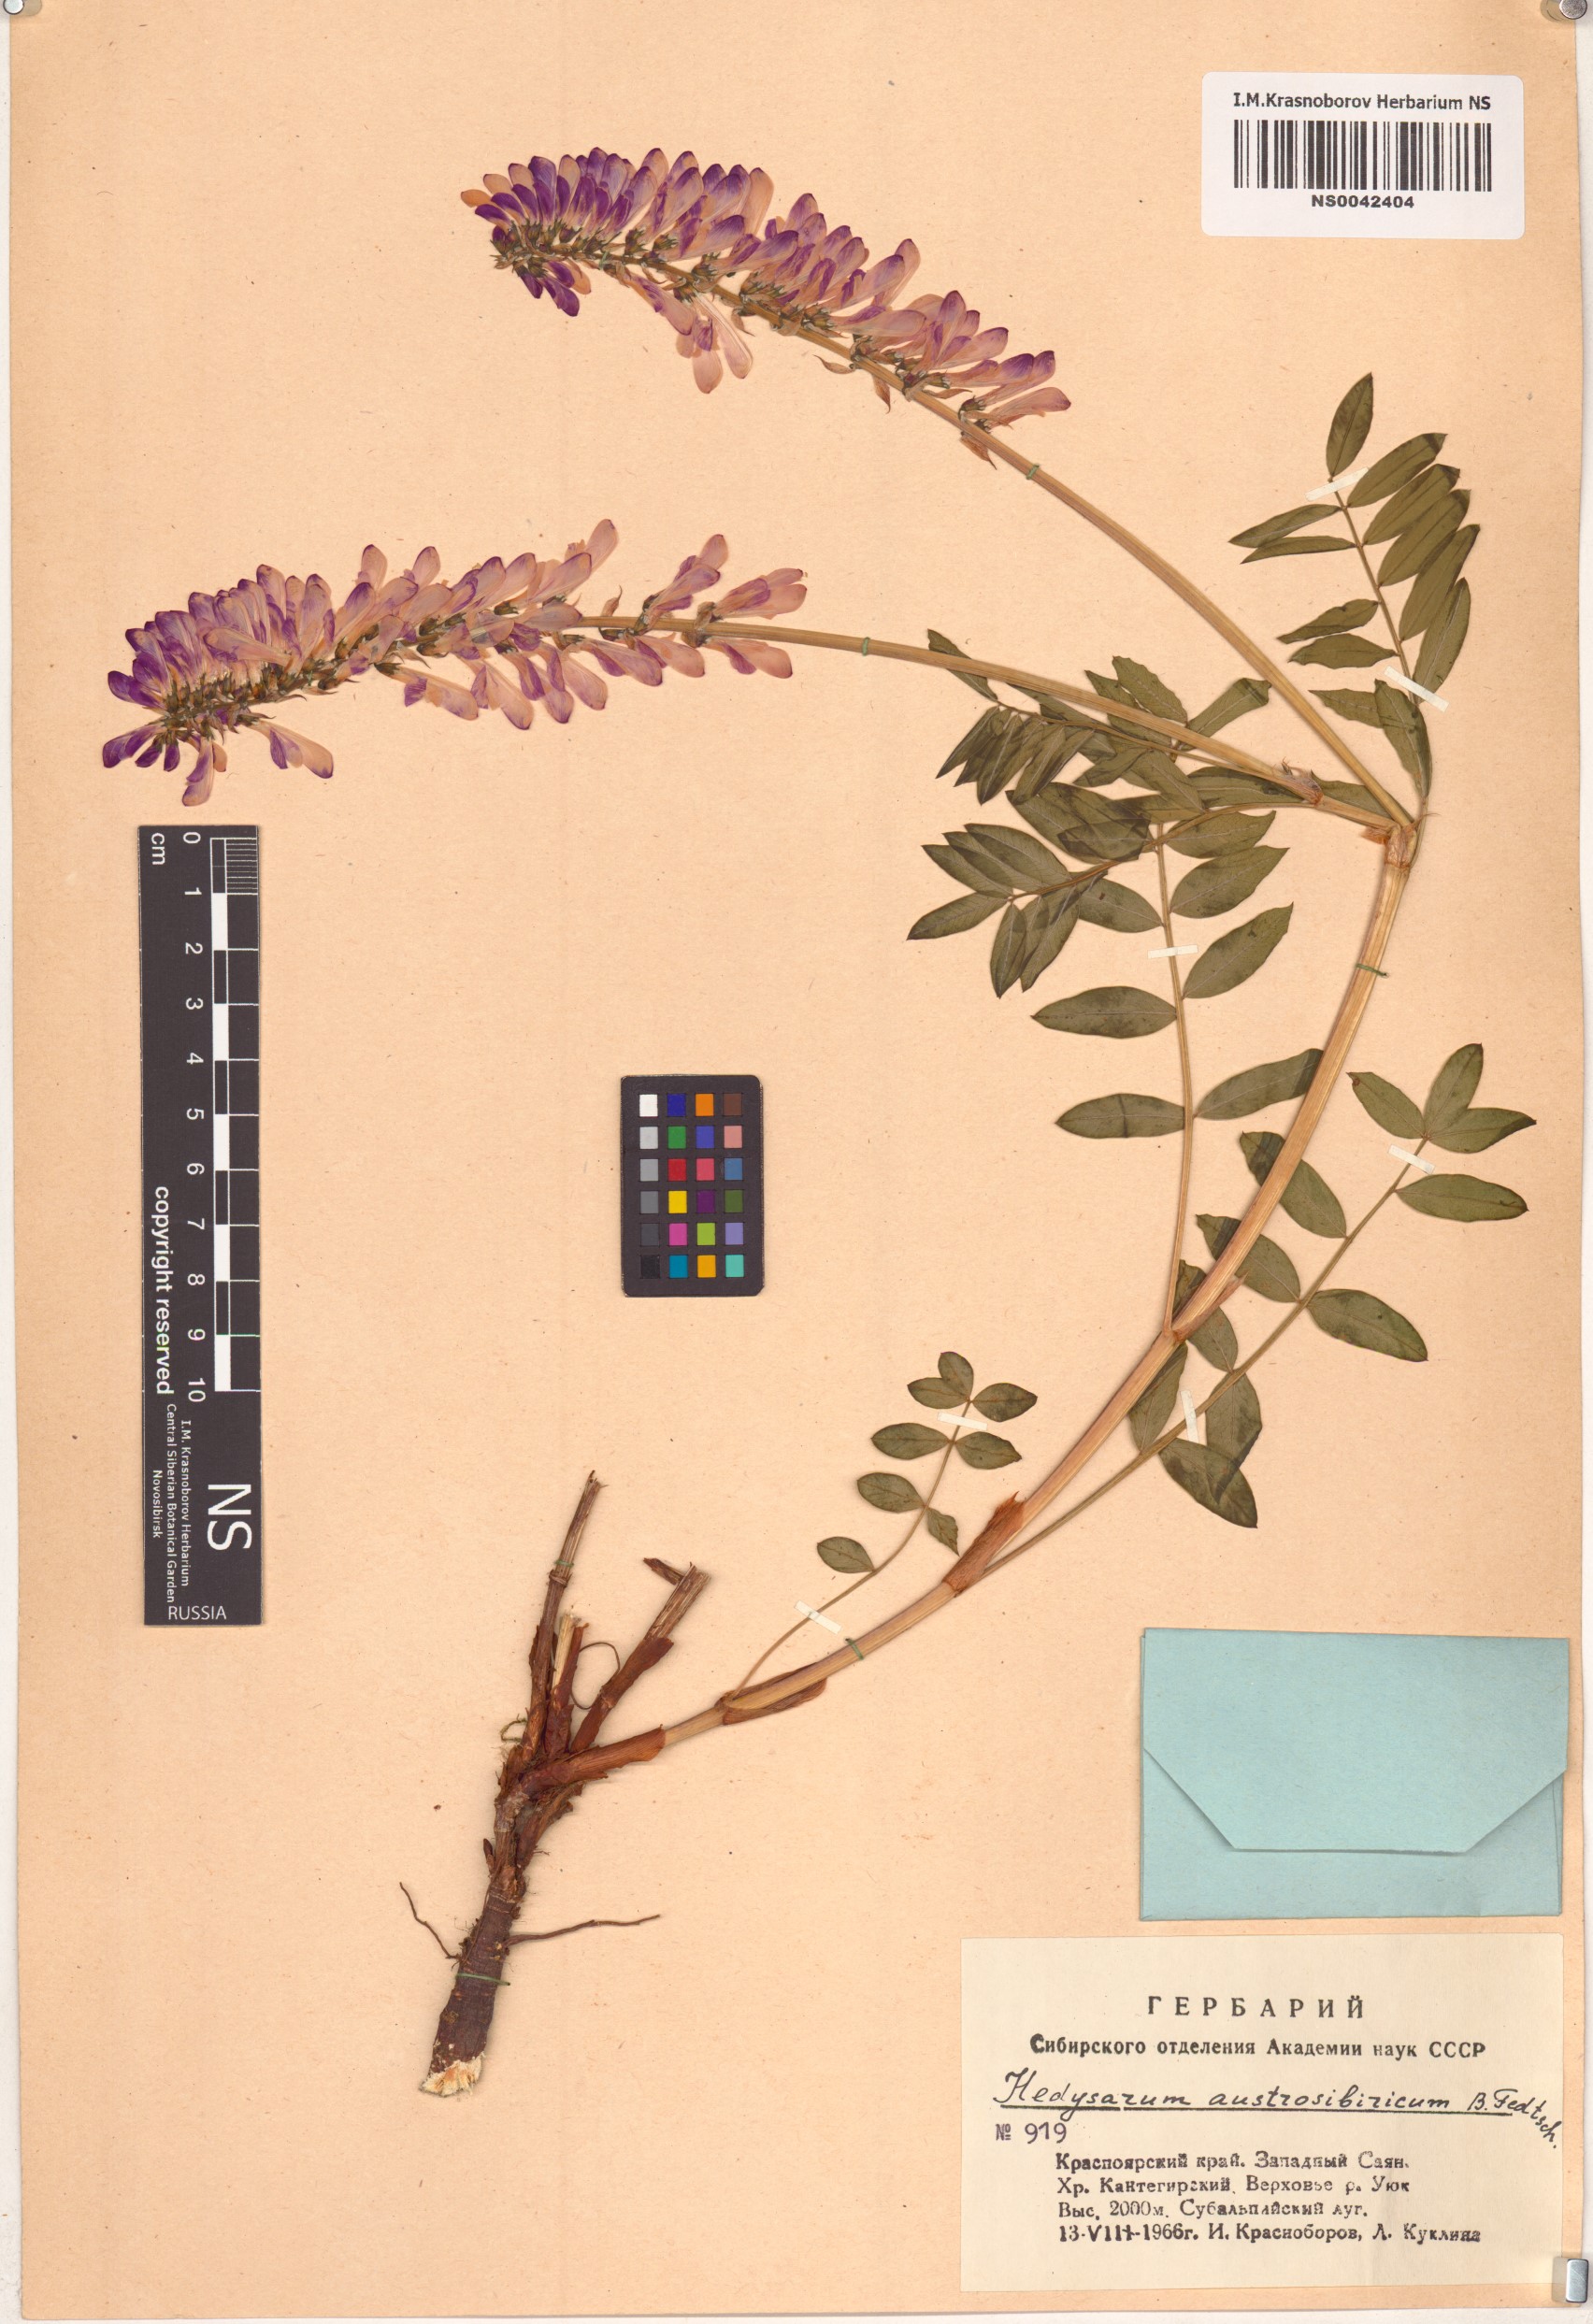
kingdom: Plantae
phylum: Tracheophyta
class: Magnoliopsida
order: Fabales
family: Fabaceae
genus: Hedysarum
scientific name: Hedysarum neglectum
